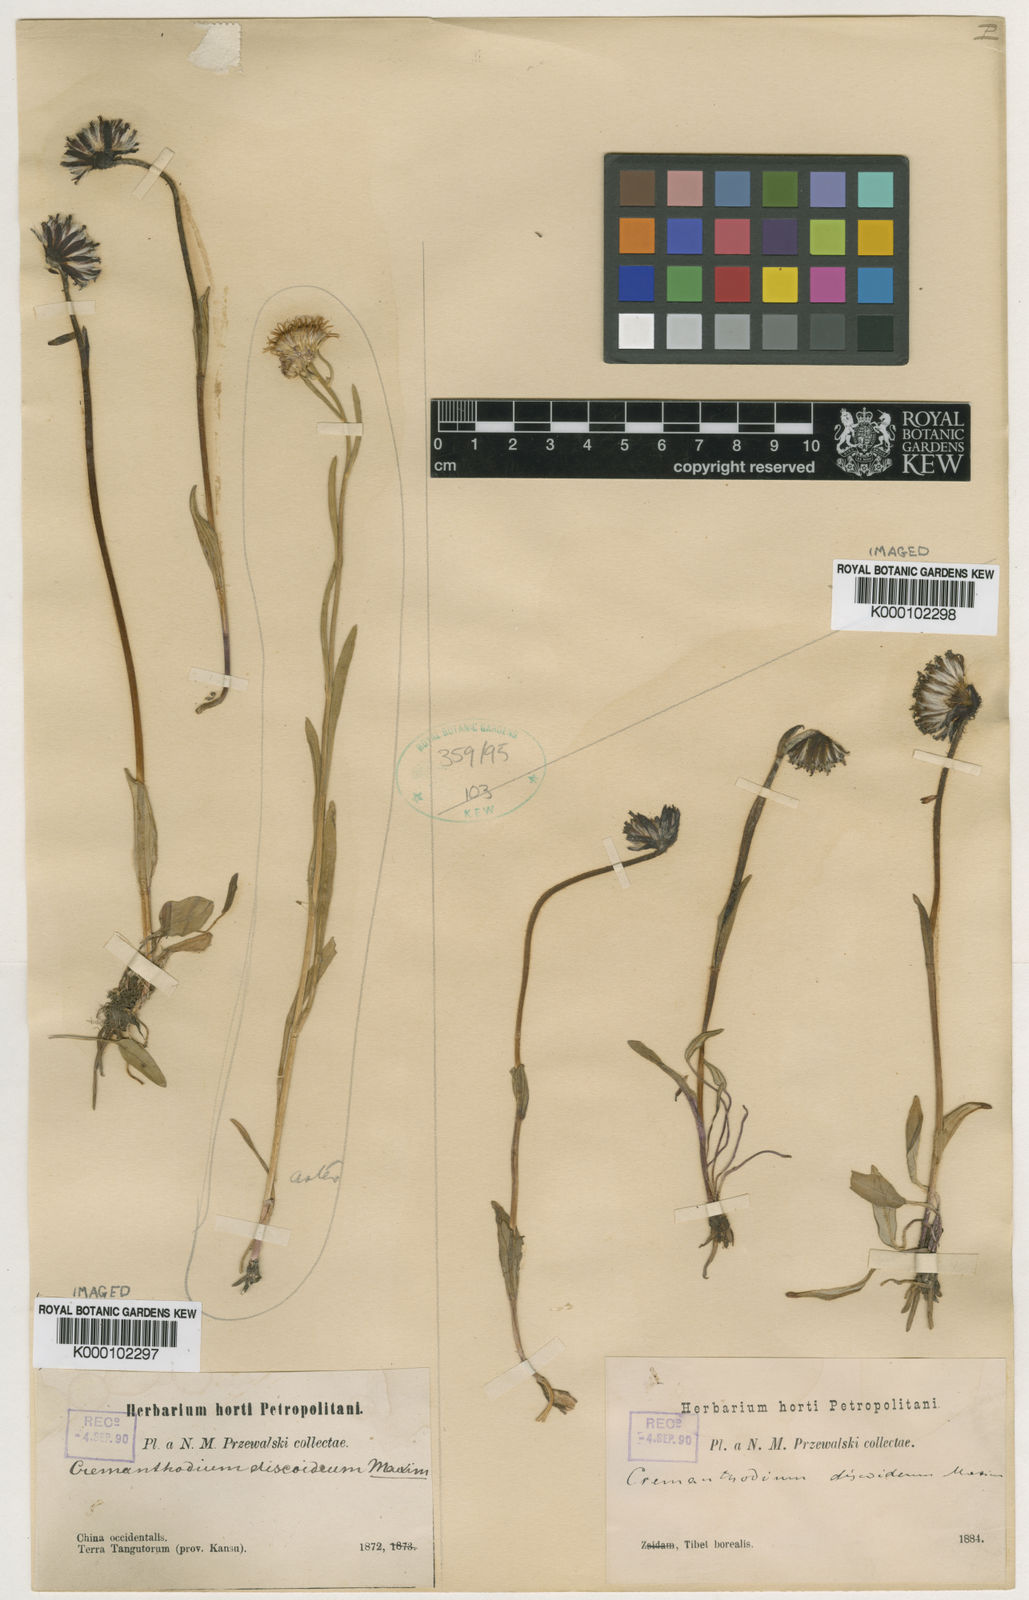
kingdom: Plantae
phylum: Tracheophyta
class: Magnoliopsida
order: Asterales
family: Asteraceae
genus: Cremanthodium
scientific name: Cremanthodium discoideum
